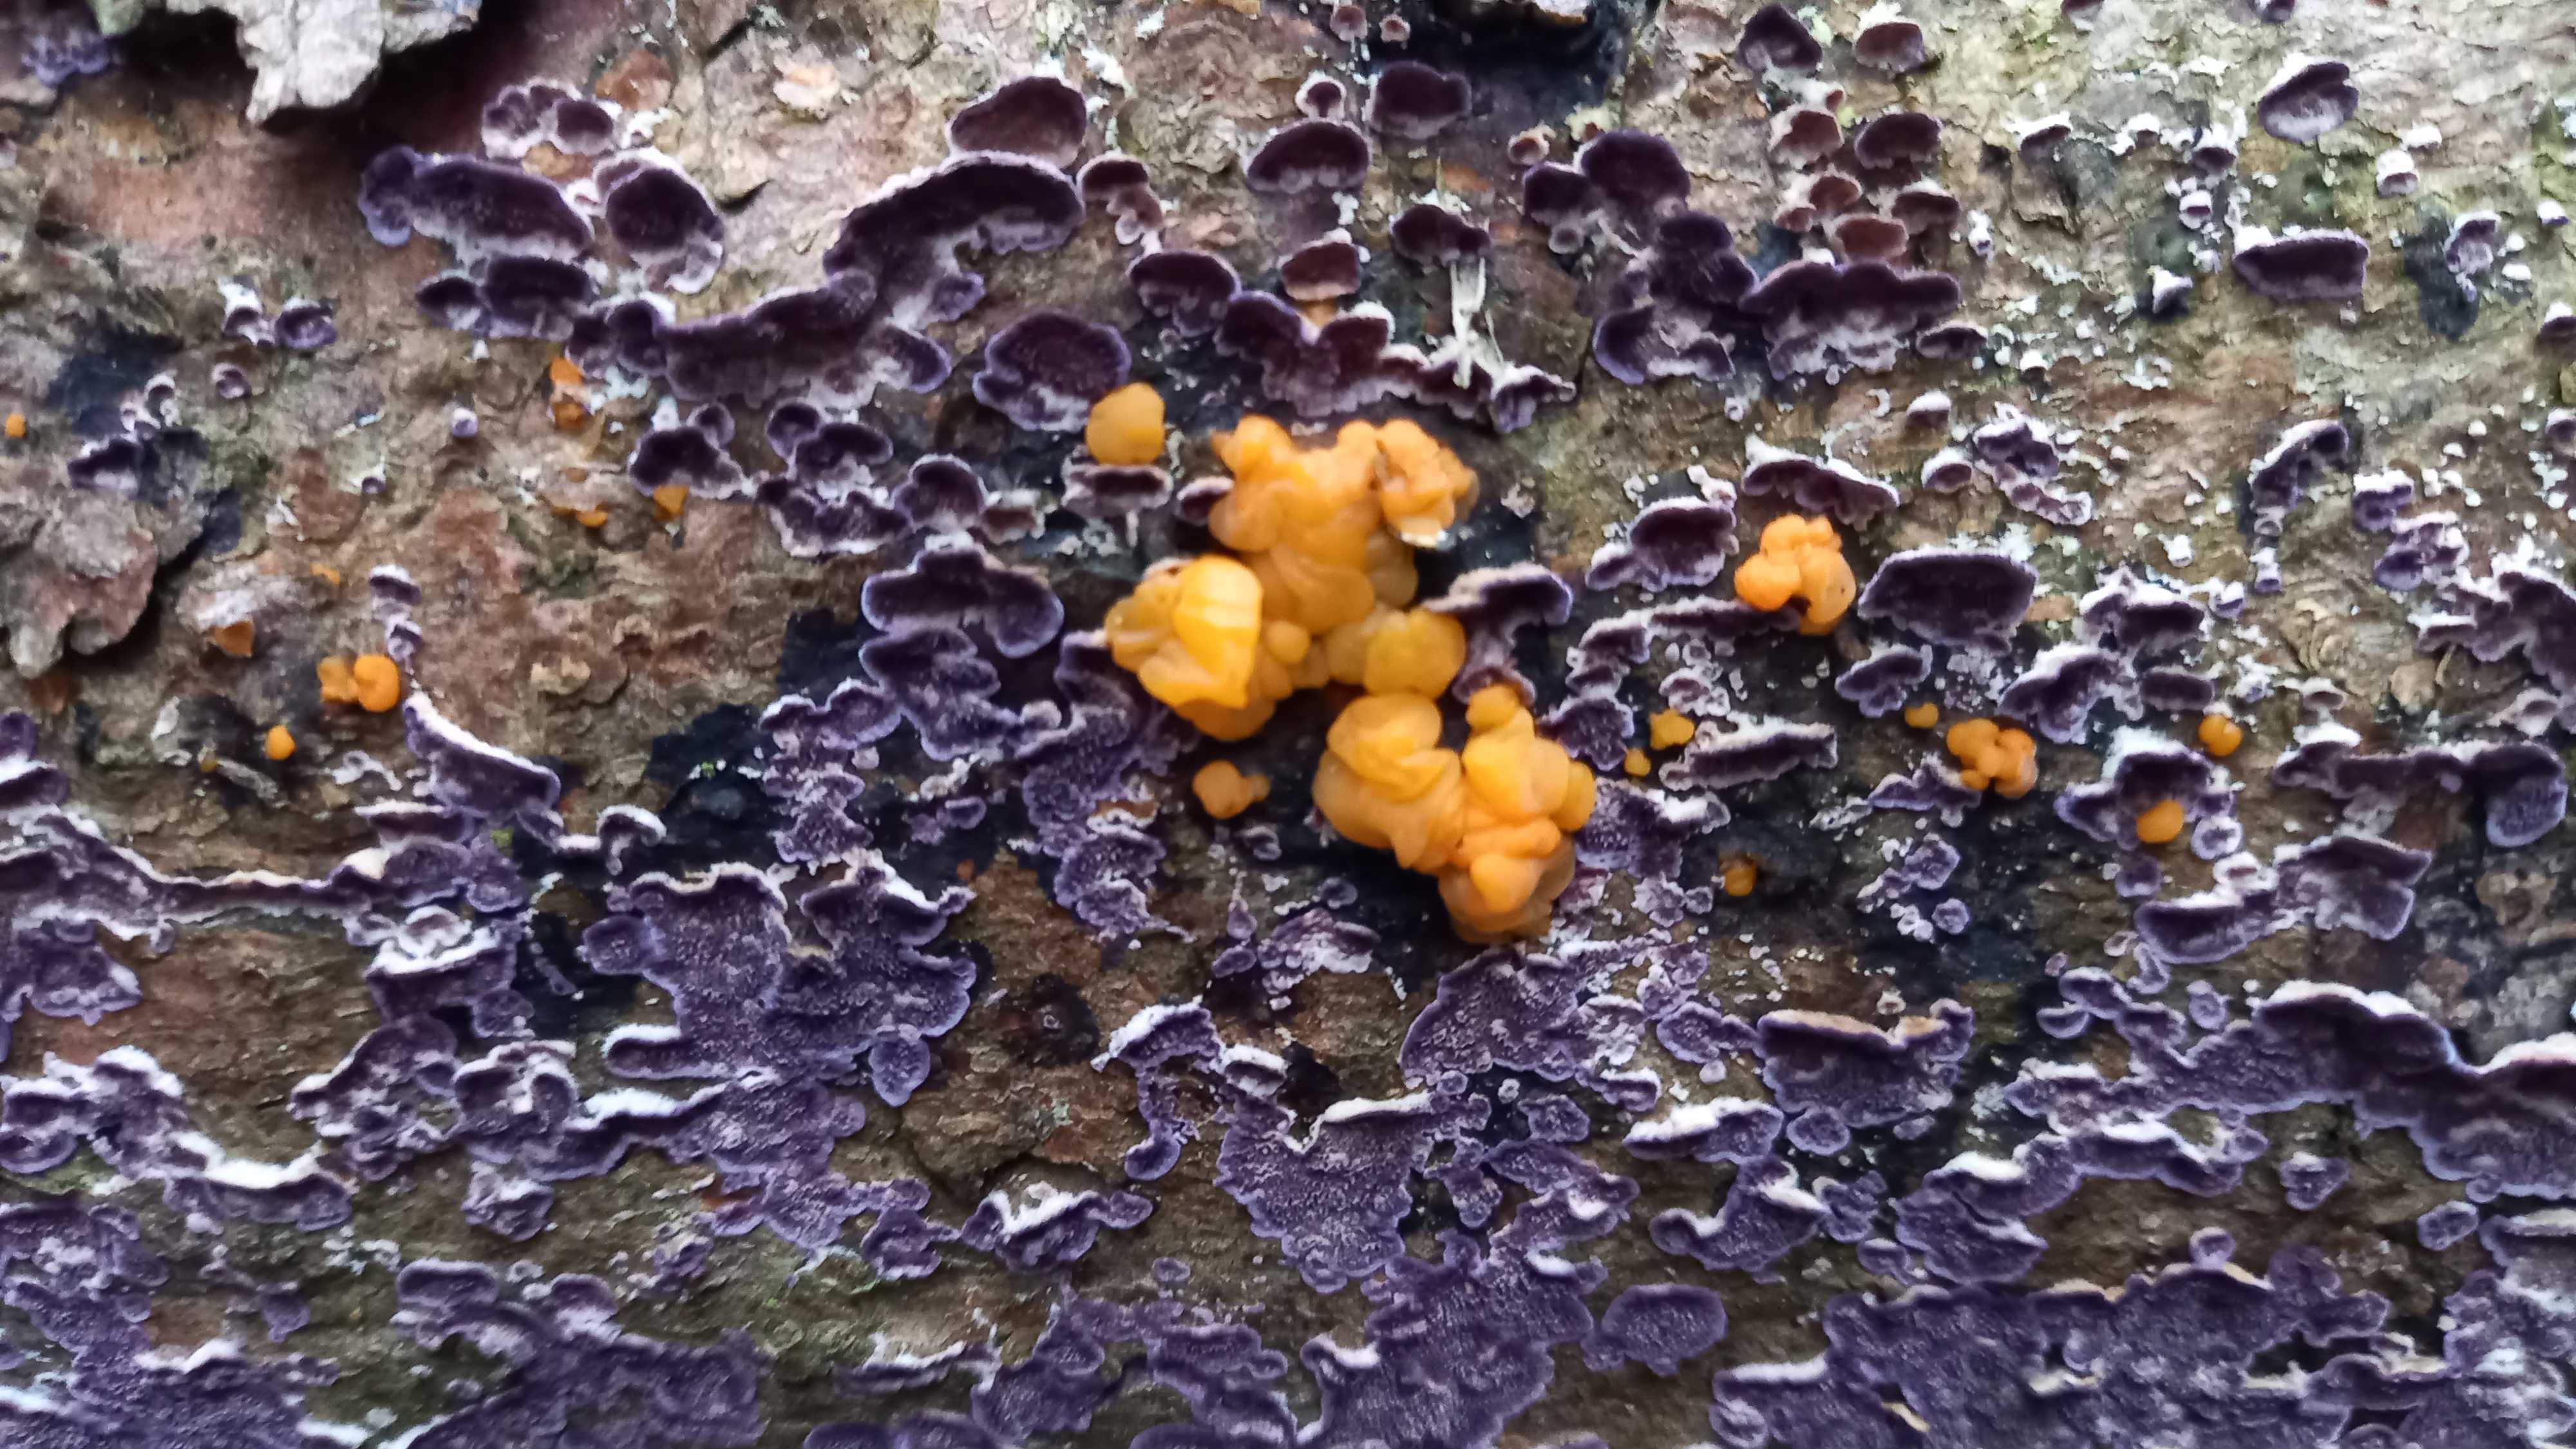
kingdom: Fungi
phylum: Basidiomycota
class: Dacrymycetes
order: Dacrymycetales
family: Dacrymycetaceae
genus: Dacrymyces
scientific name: Dacrymyces stillatus
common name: almindelig tåresvamp
